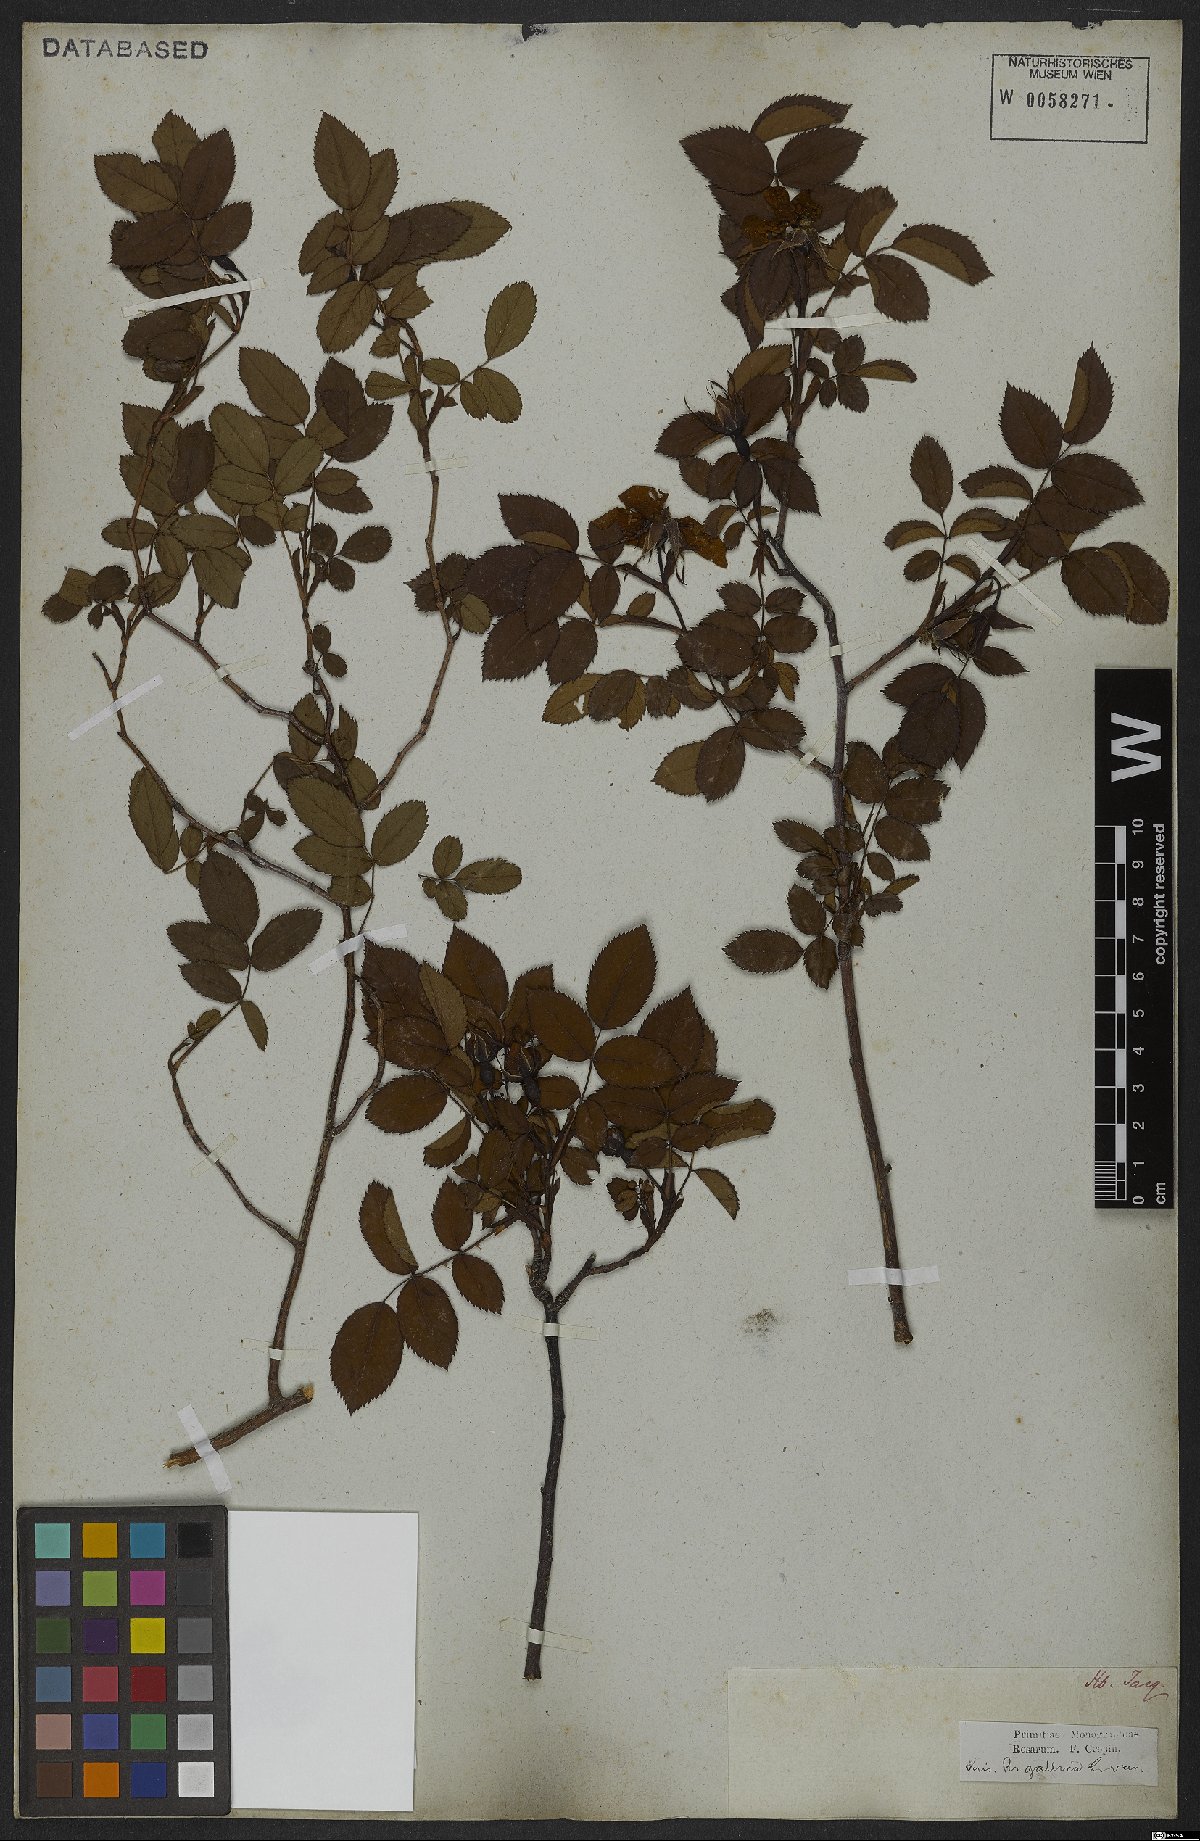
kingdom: Plantae
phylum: Tracheophyta
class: Magnoliopsida
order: Rosales
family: Rosaceae
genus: Rosa
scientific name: Rosa gallica
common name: French rose
